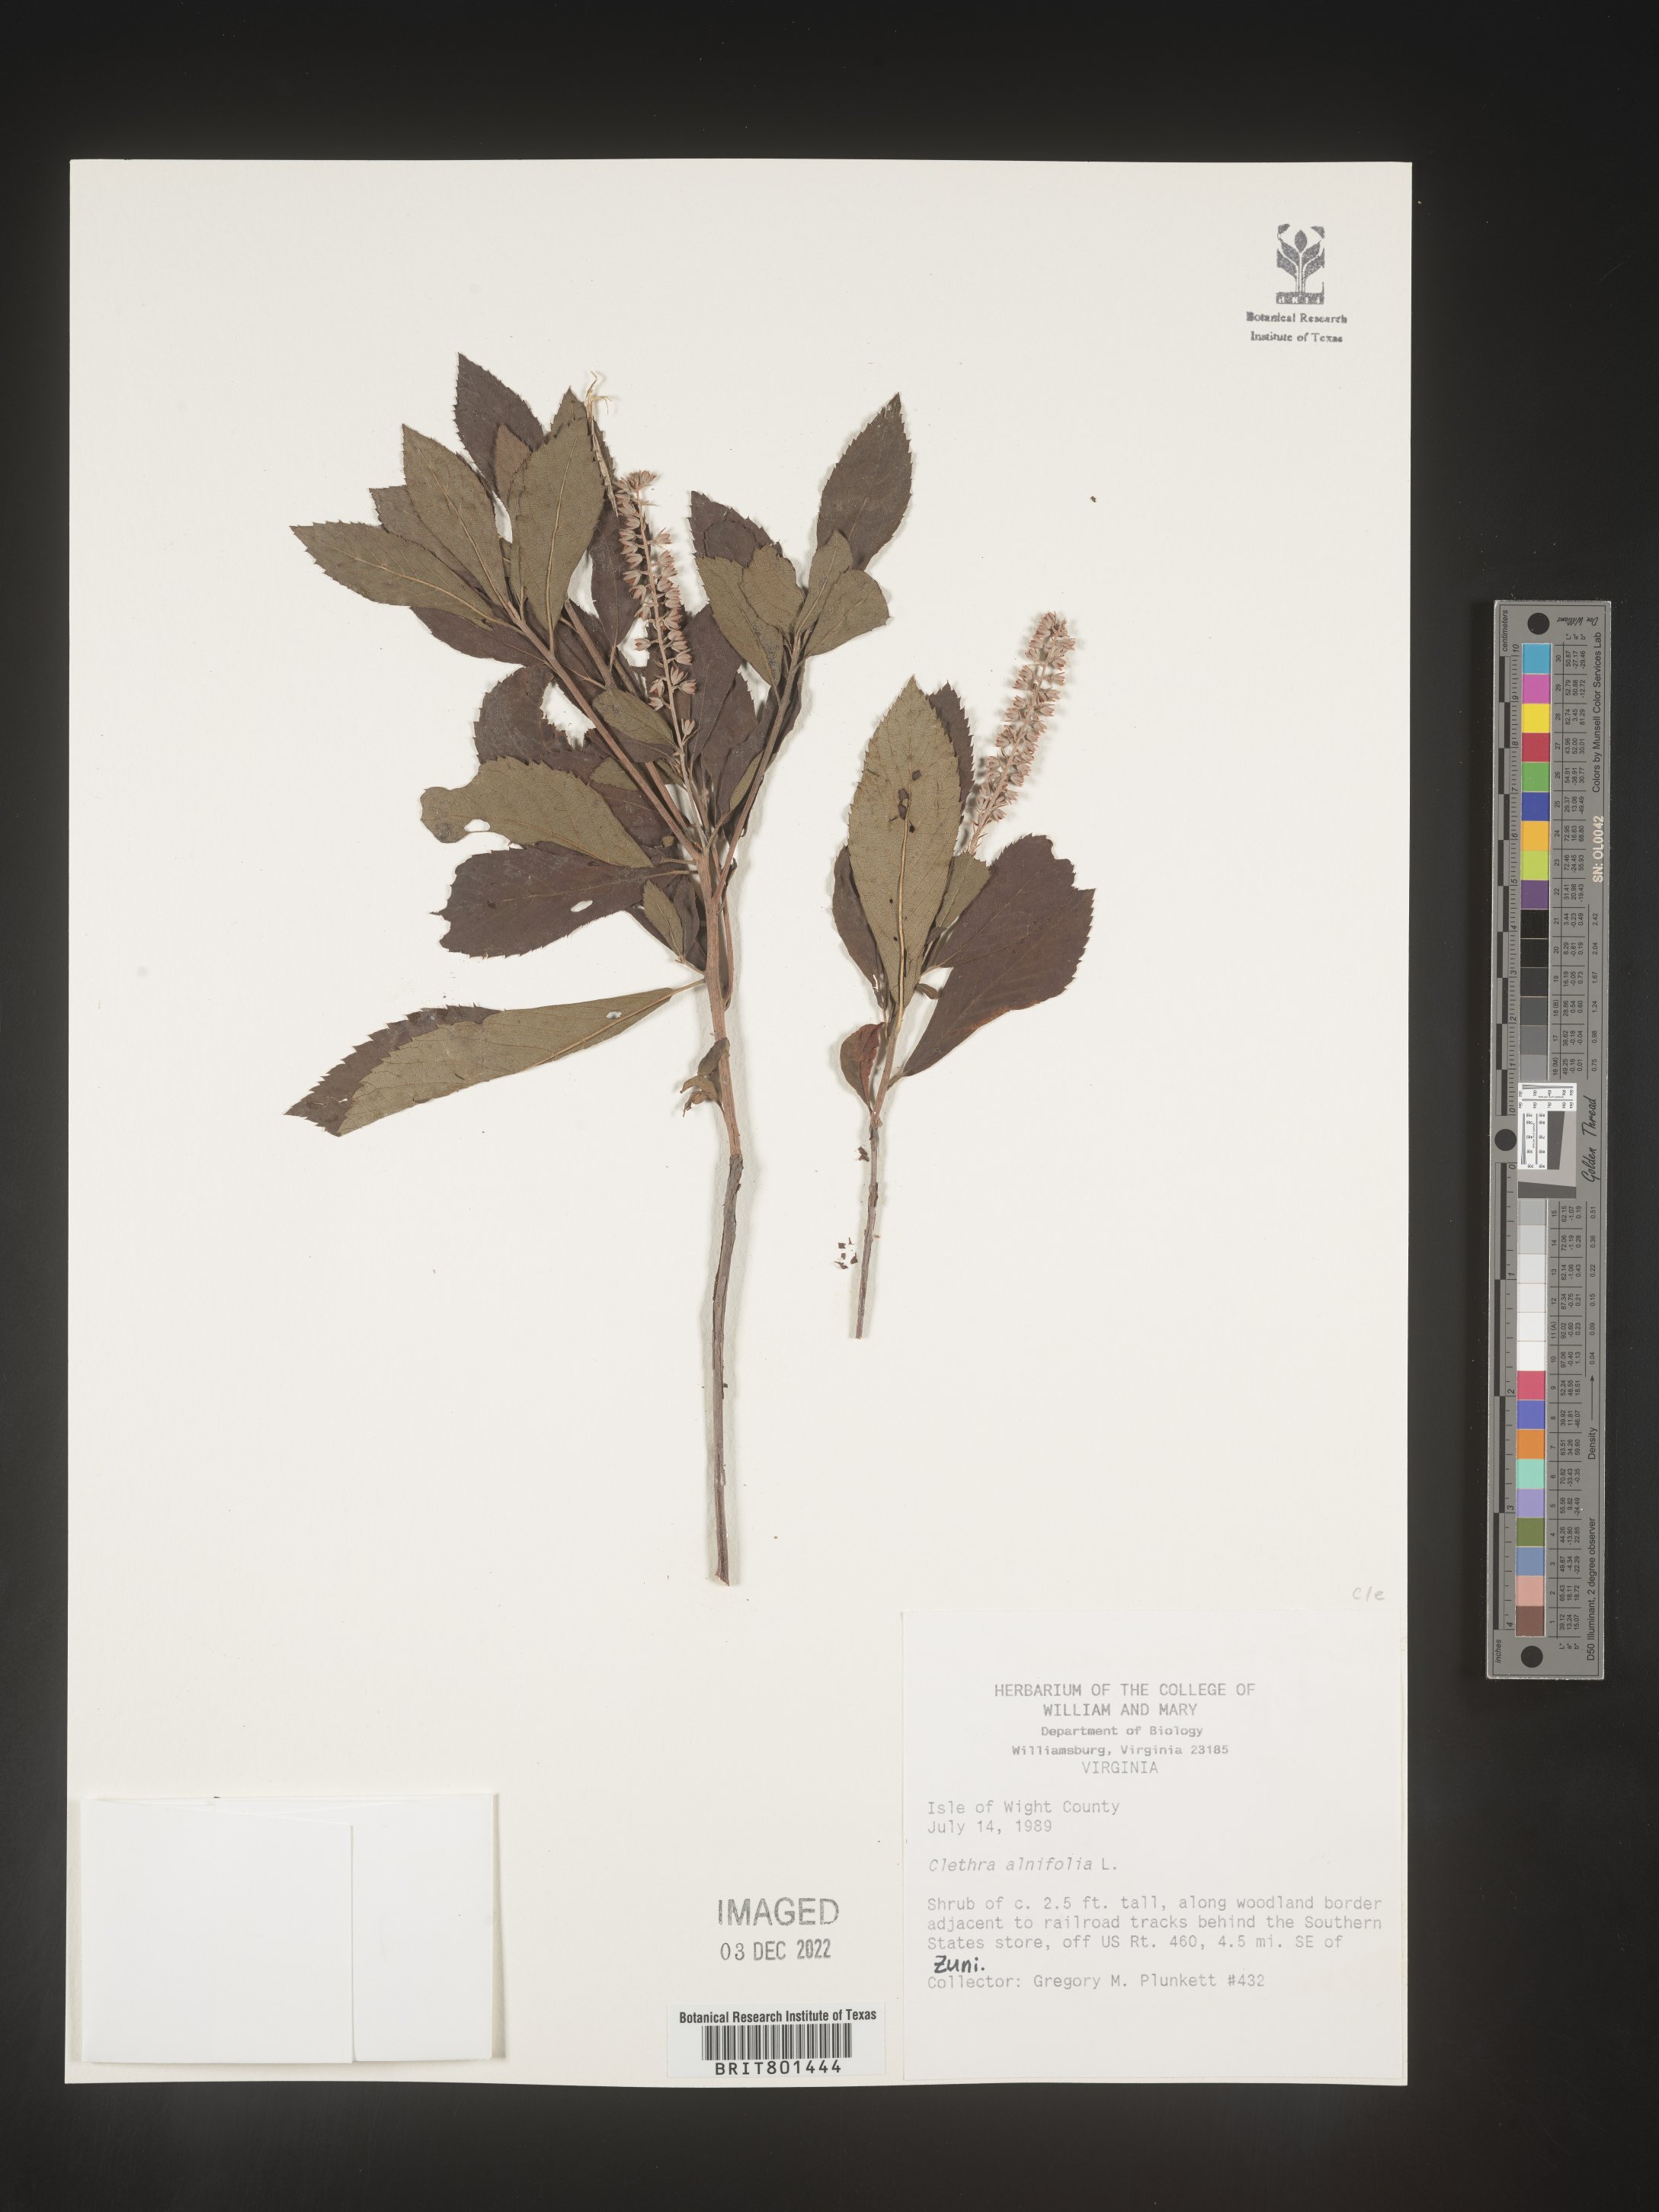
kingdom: Plantae
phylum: Tracheophyta
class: Magnoliopsida
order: Ericales
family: Clethraceae
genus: Clethra
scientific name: Clethra alnifolia
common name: Sweet pepperbush
